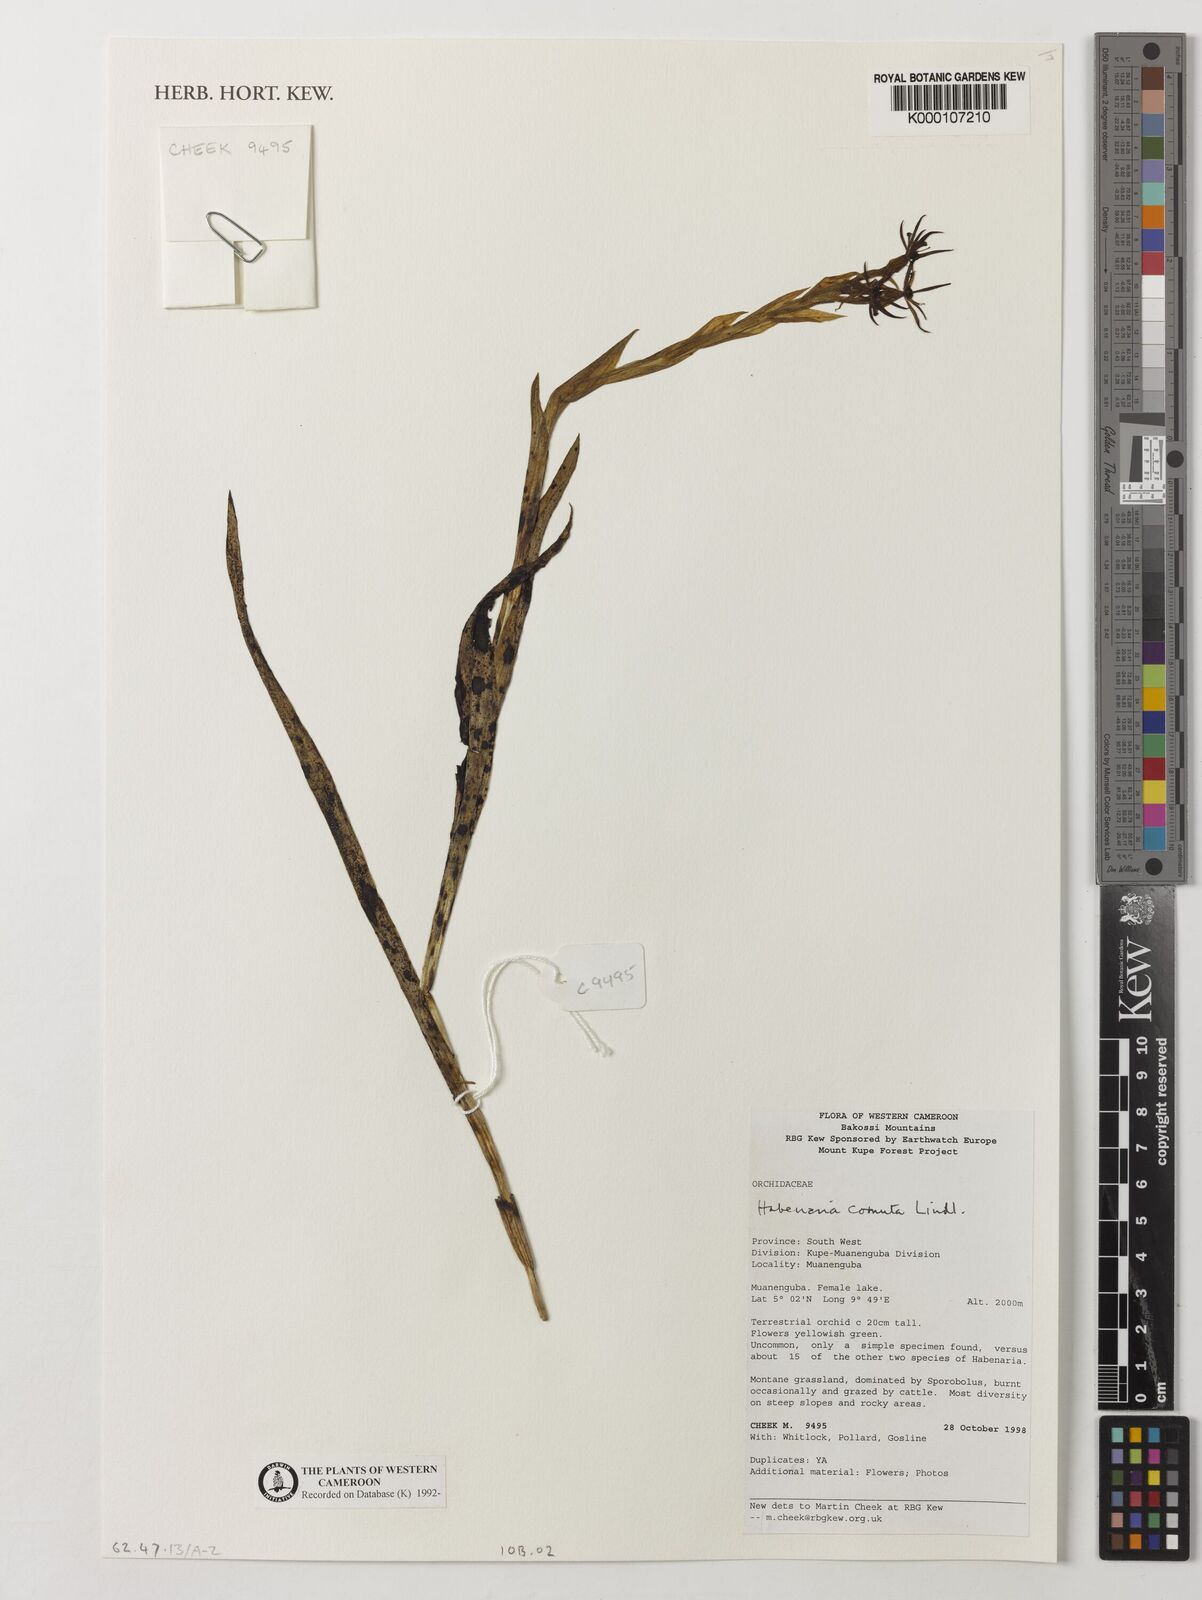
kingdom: Plantae
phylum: Tracheophyta
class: Liliopsida
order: Asparagales
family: Orchidaceae
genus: Habenaria
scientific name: Habenaria cornuta
